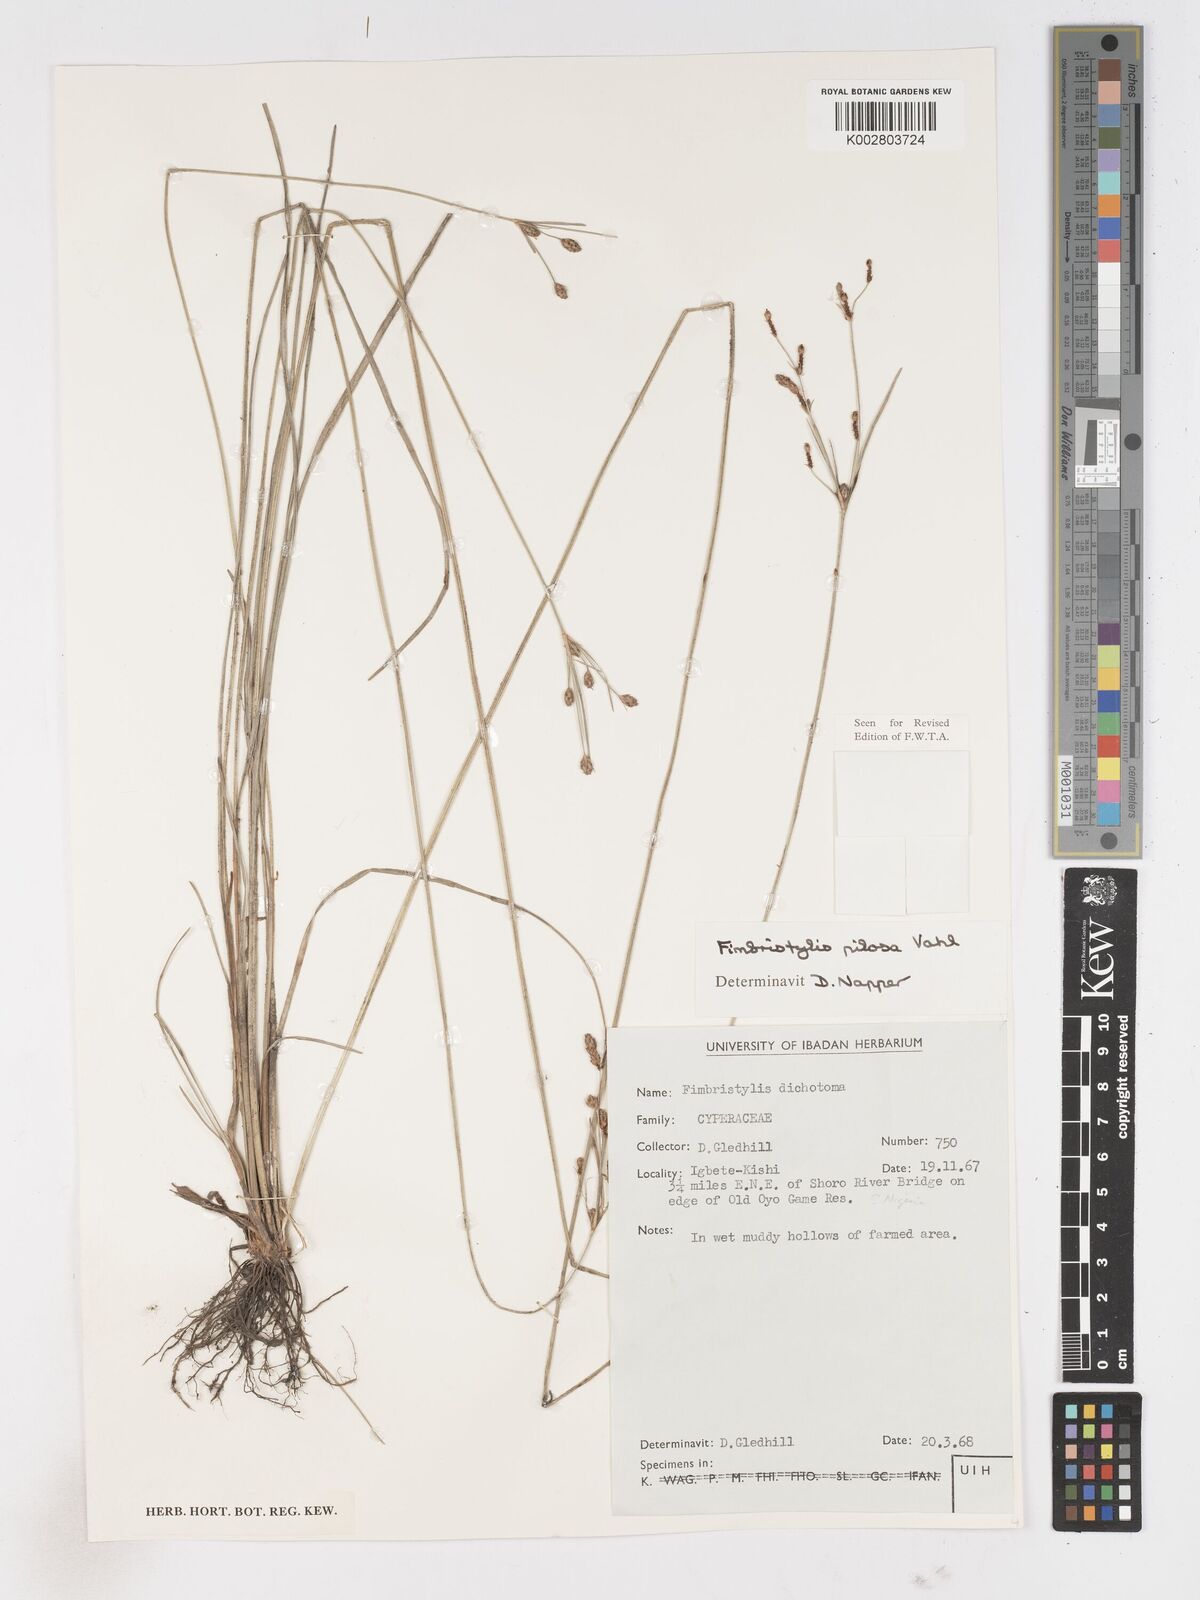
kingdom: Plantae
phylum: Tracheophyta
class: Liliopsida
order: Poales
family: Cyperaceae
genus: Fimbristylis
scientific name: Fimbristylis pilosa
